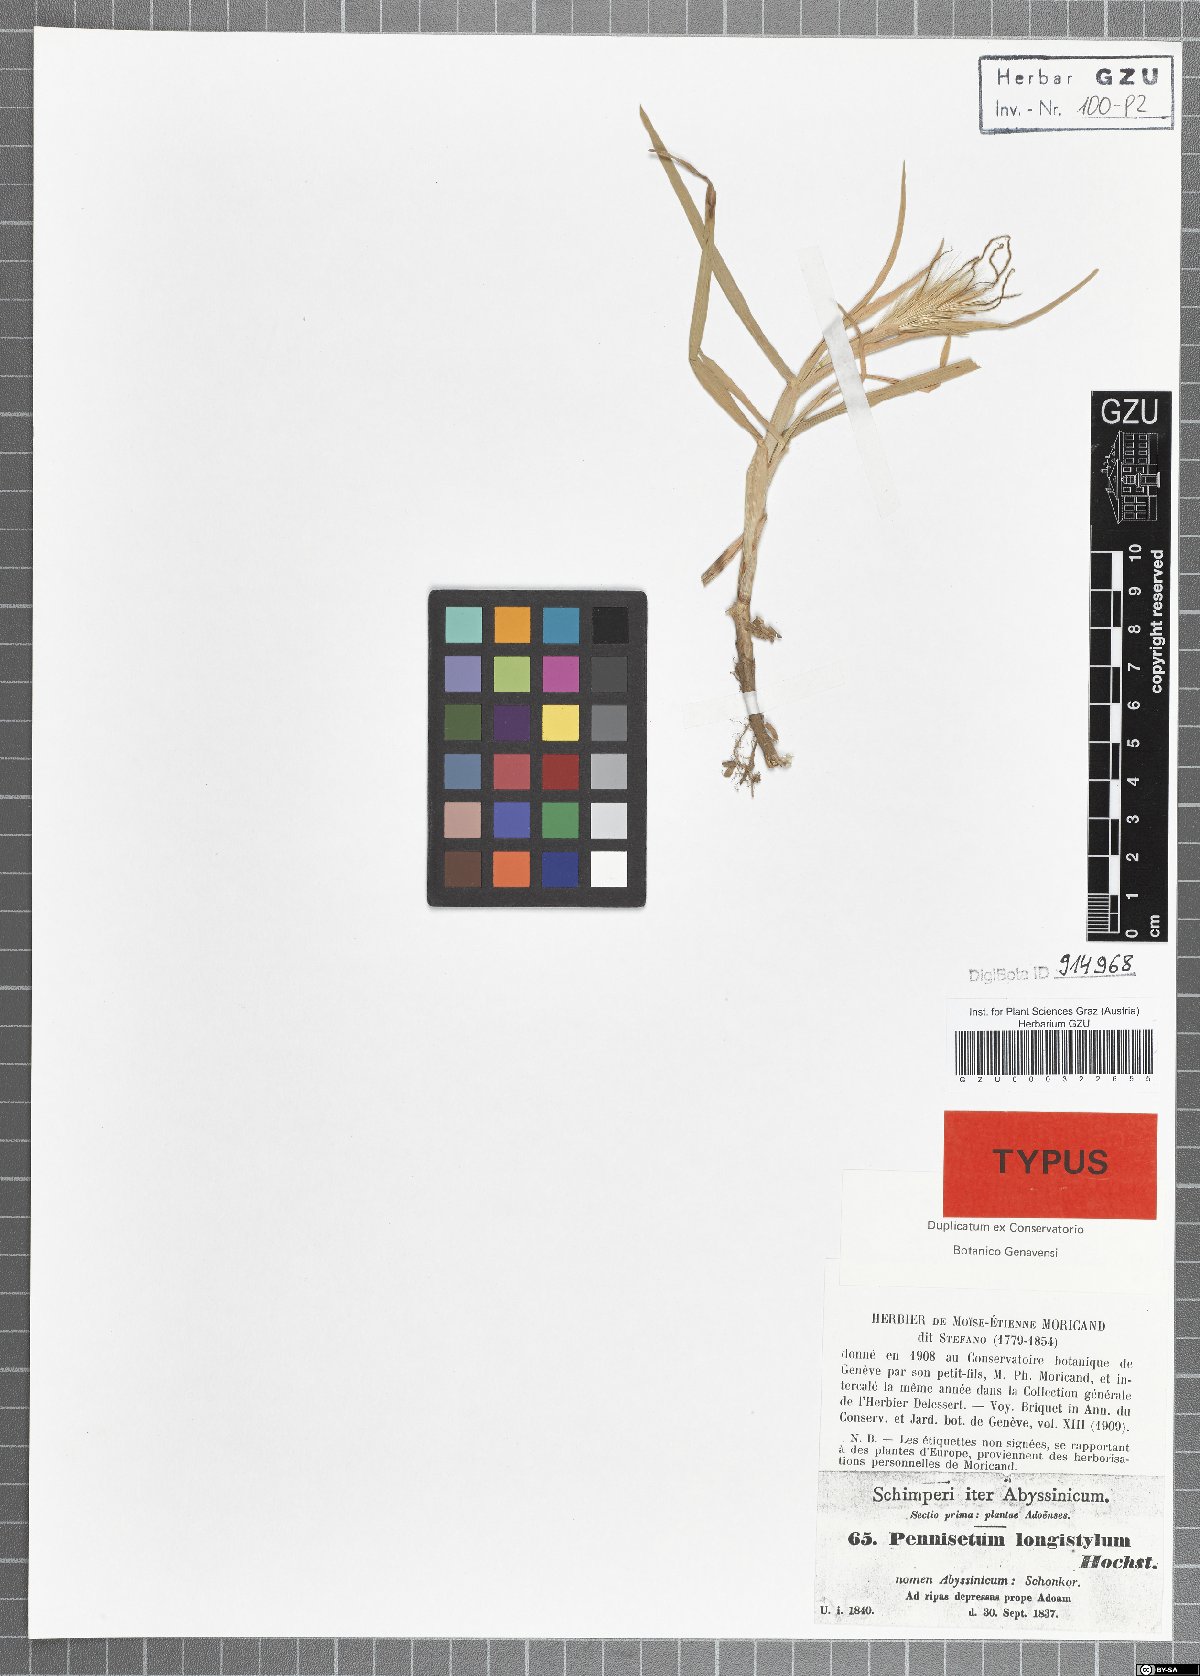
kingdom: Plantae
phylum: Tracheophyta
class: Liliopsida
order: Poales
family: Poaceae
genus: Cenchrus
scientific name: Cenchrus longistylus
